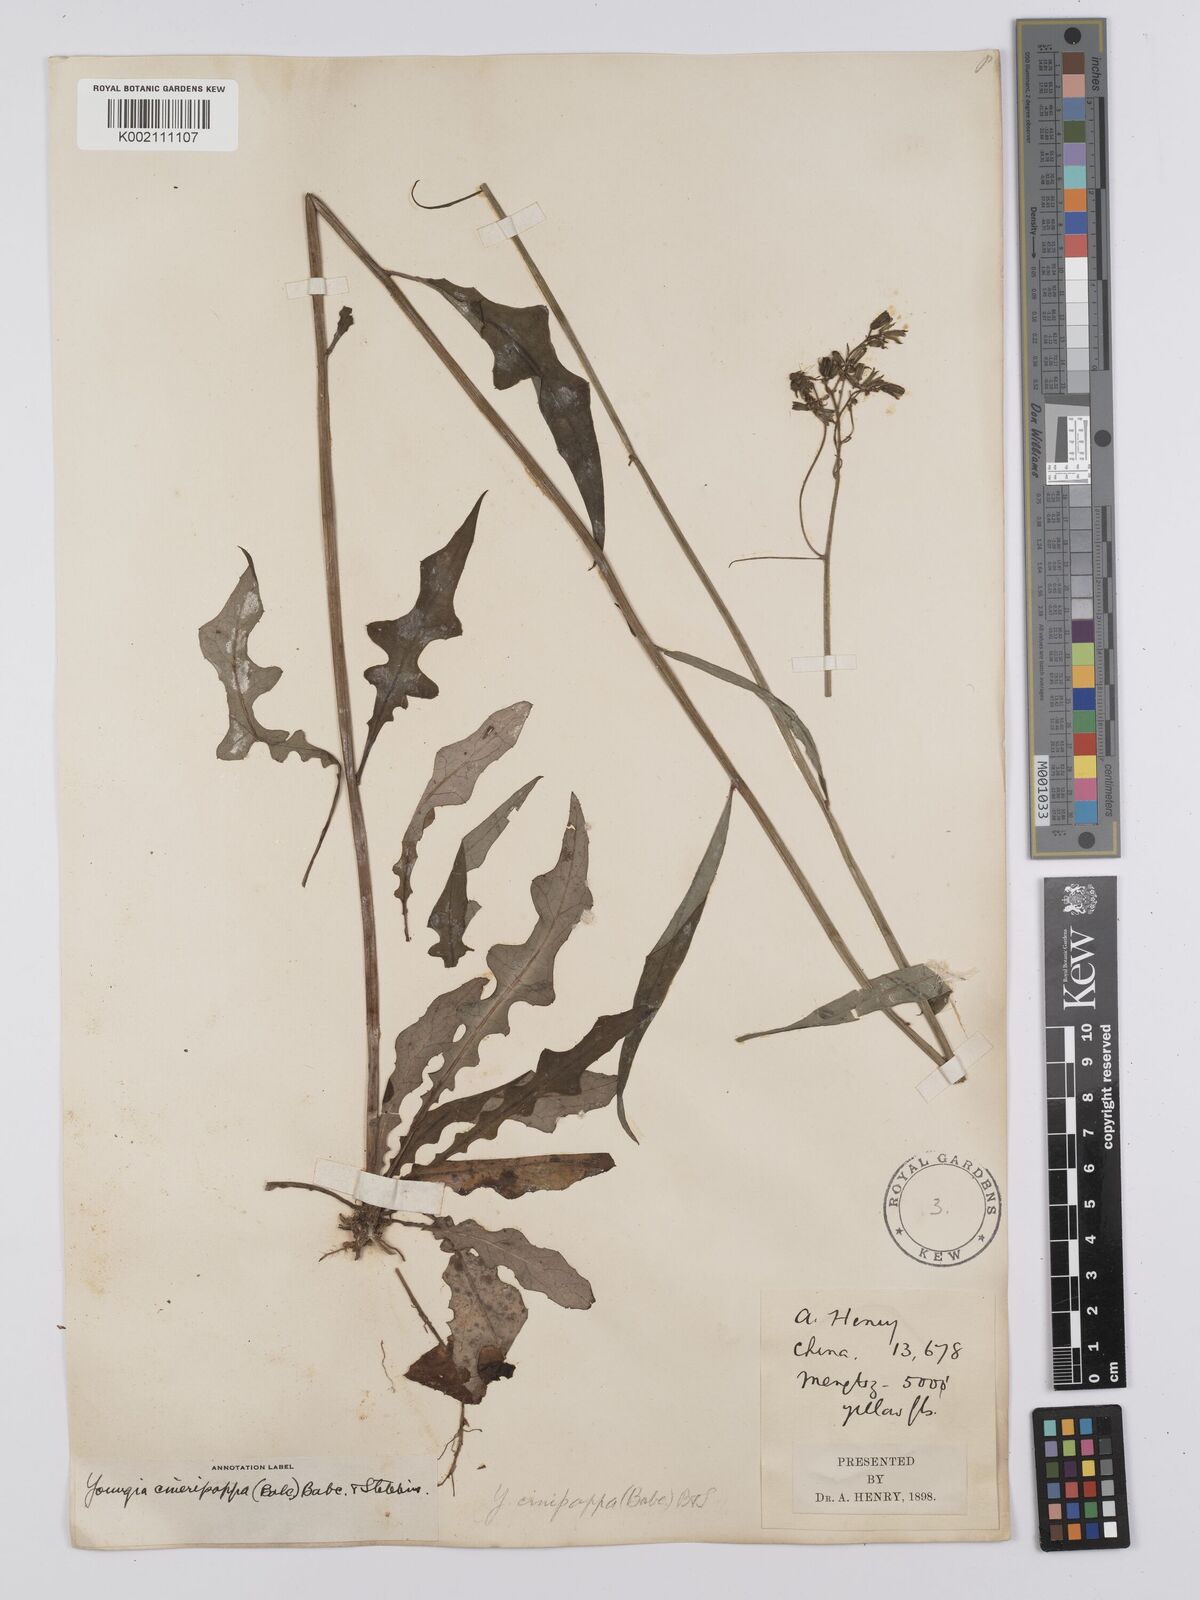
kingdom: Plantae
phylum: Tracheophyta
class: Magnoliopsida
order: Asterales
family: Asteraceae
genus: Youngia
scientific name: Youngia cineripappa
